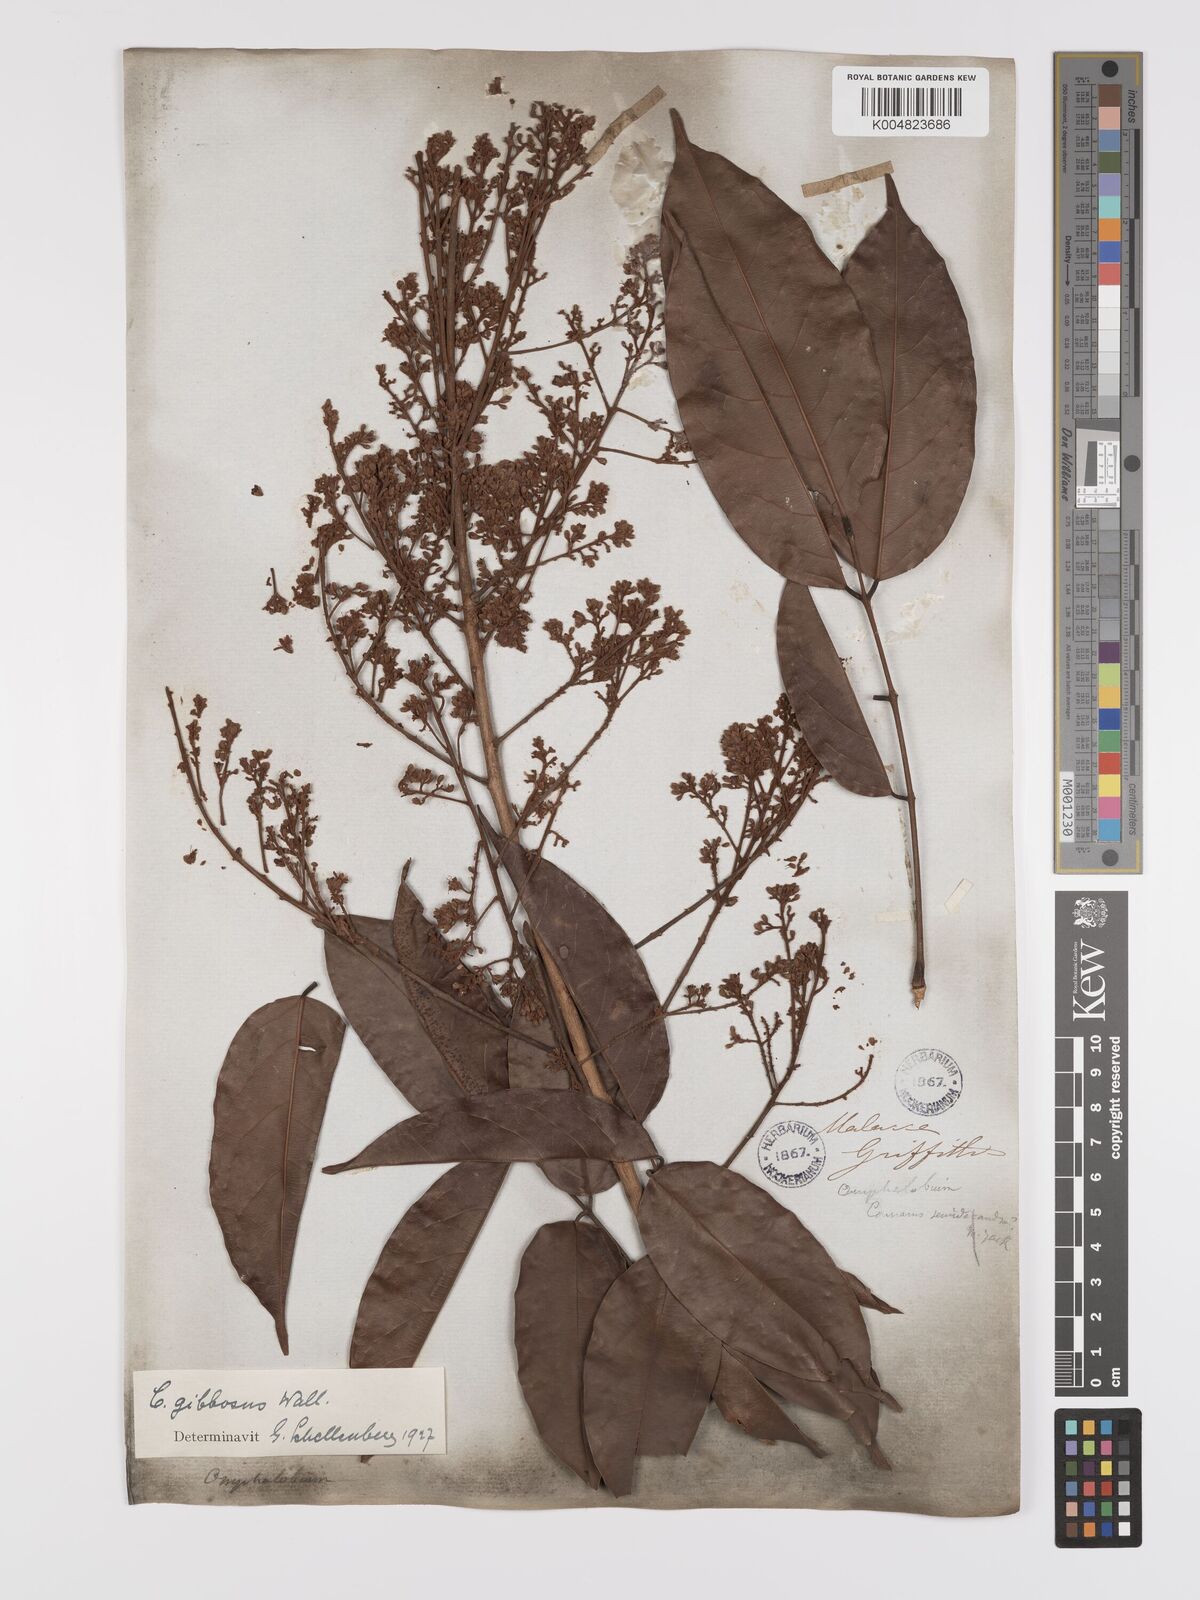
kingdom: Plantae
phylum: Tracheophyta
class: Magnoliopsida
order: Oxalidales
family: Connaraceae
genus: Connarus
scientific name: Connarus semidecandrus
